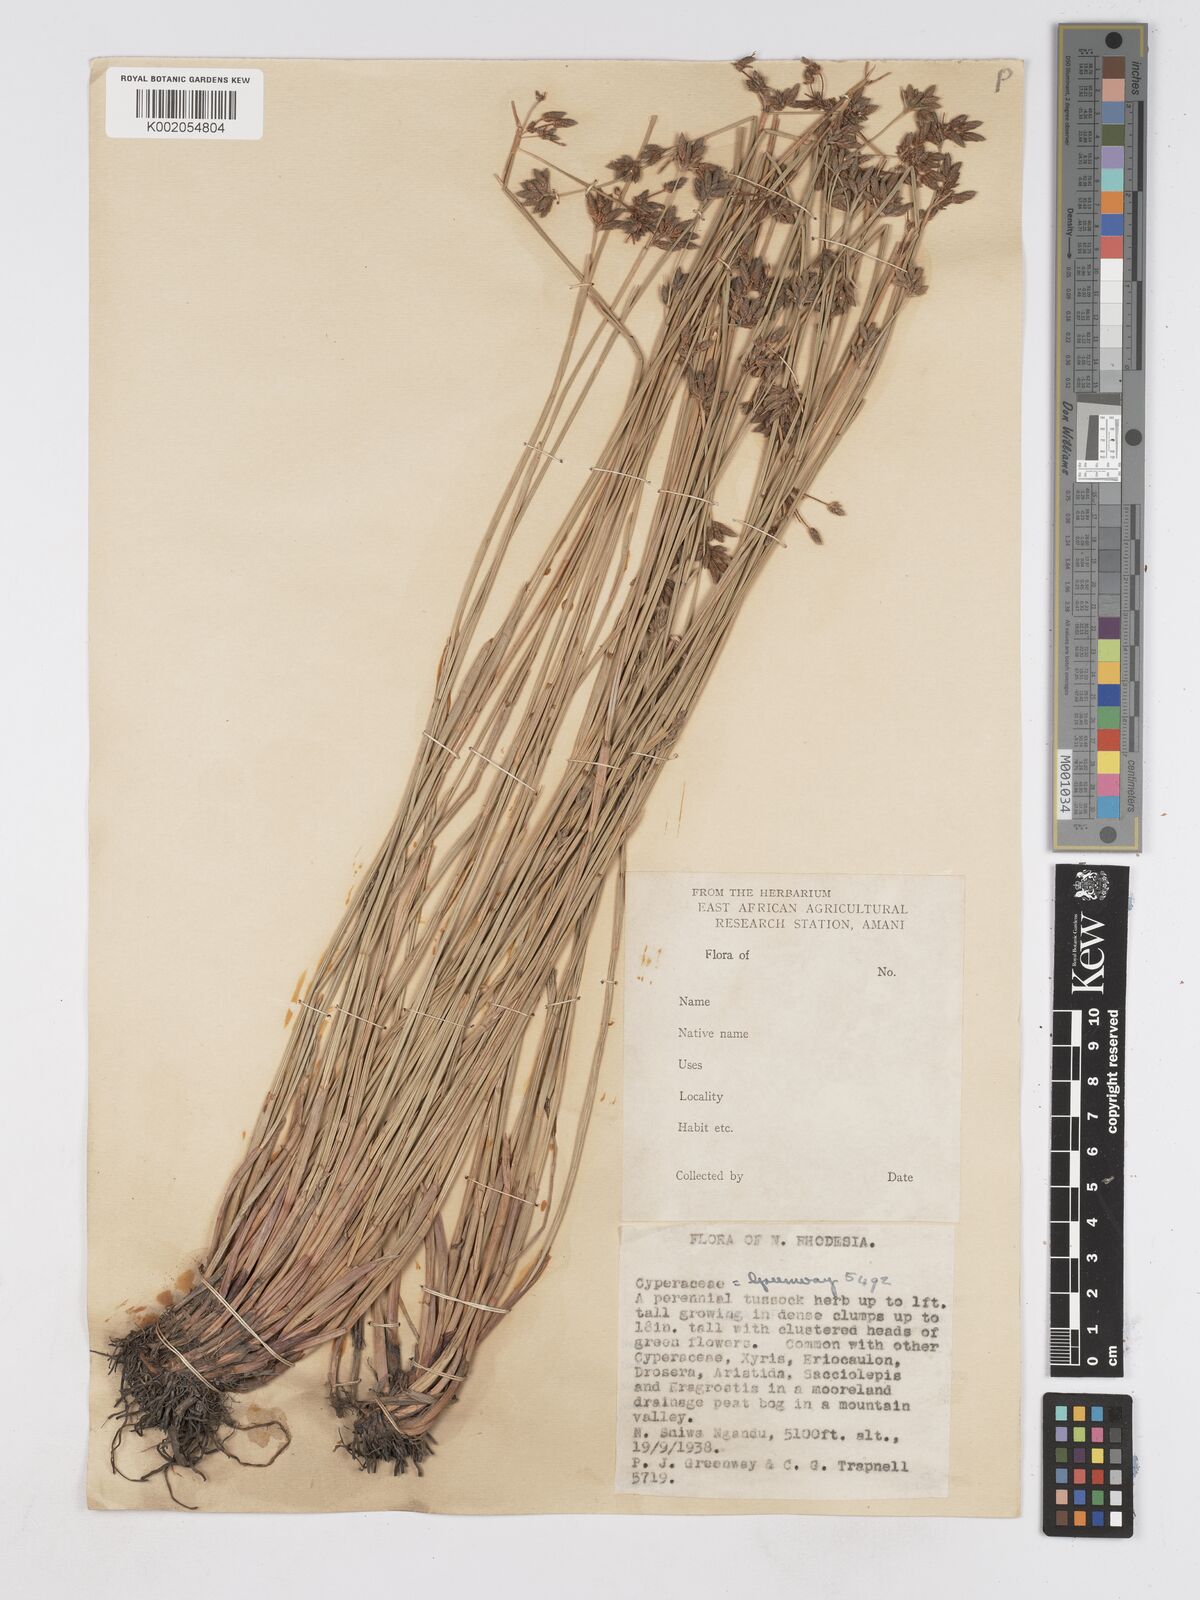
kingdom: Plantae
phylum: Tracheophyta
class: Liliopsida
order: Poales
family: Cyperaceae
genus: Fuirena
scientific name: Fuirena stricta
